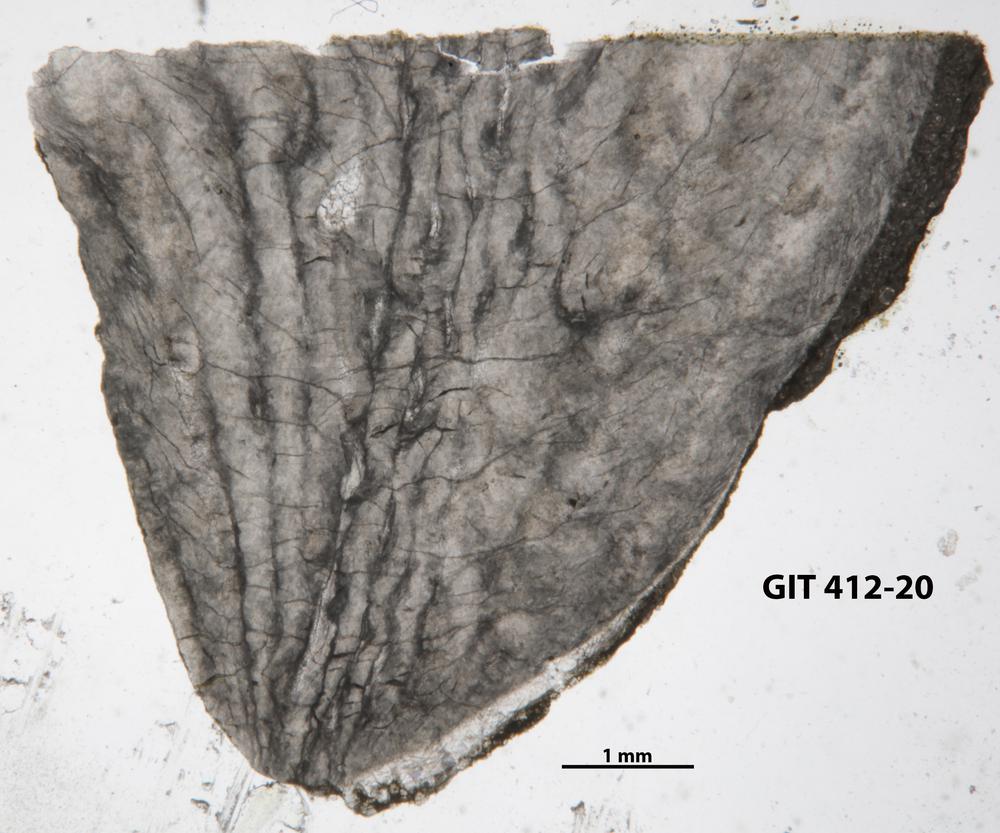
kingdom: Animalia
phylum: Cnidaria
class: Anthozoa
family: Streptelasmatidae
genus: Tungussophyllum
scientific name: Tungussophyllum
